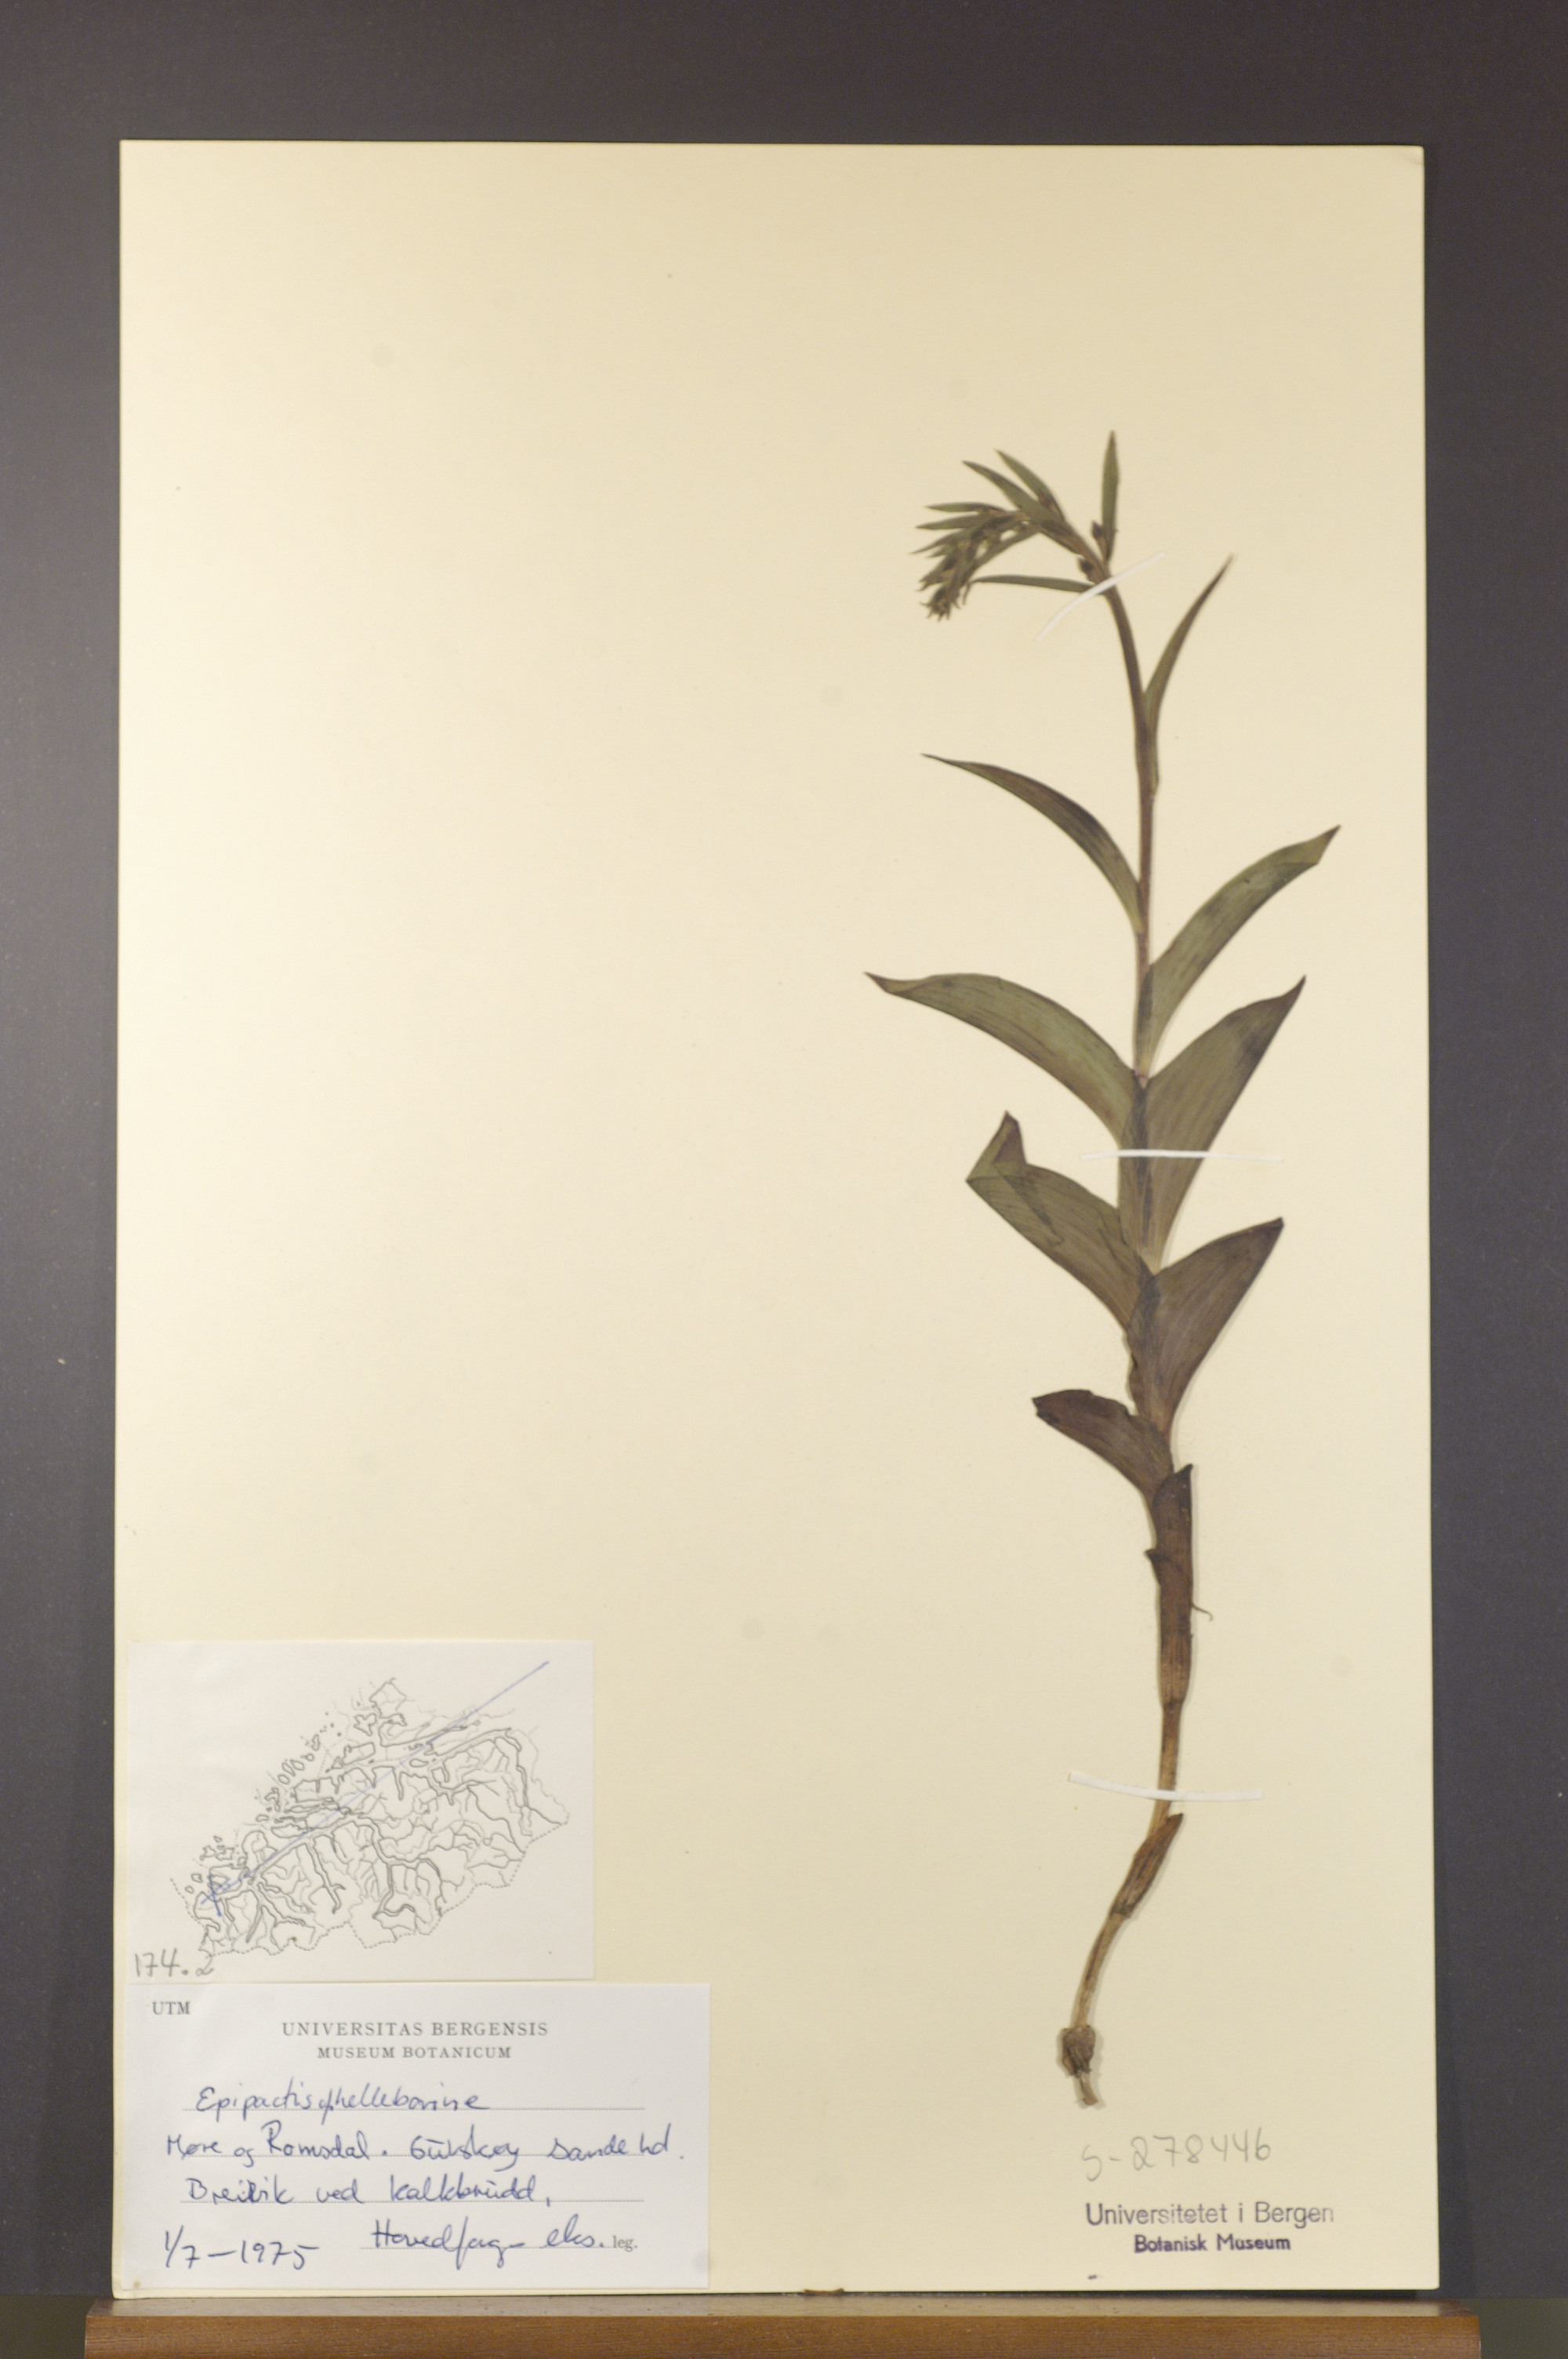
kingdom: Plantae
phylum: Tracheophyta
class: Liliopsida
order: Asparagales
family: Orchidaceae
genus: Epipactis
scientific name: Epipactis helleborine
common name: Broad-leaved helleborine
